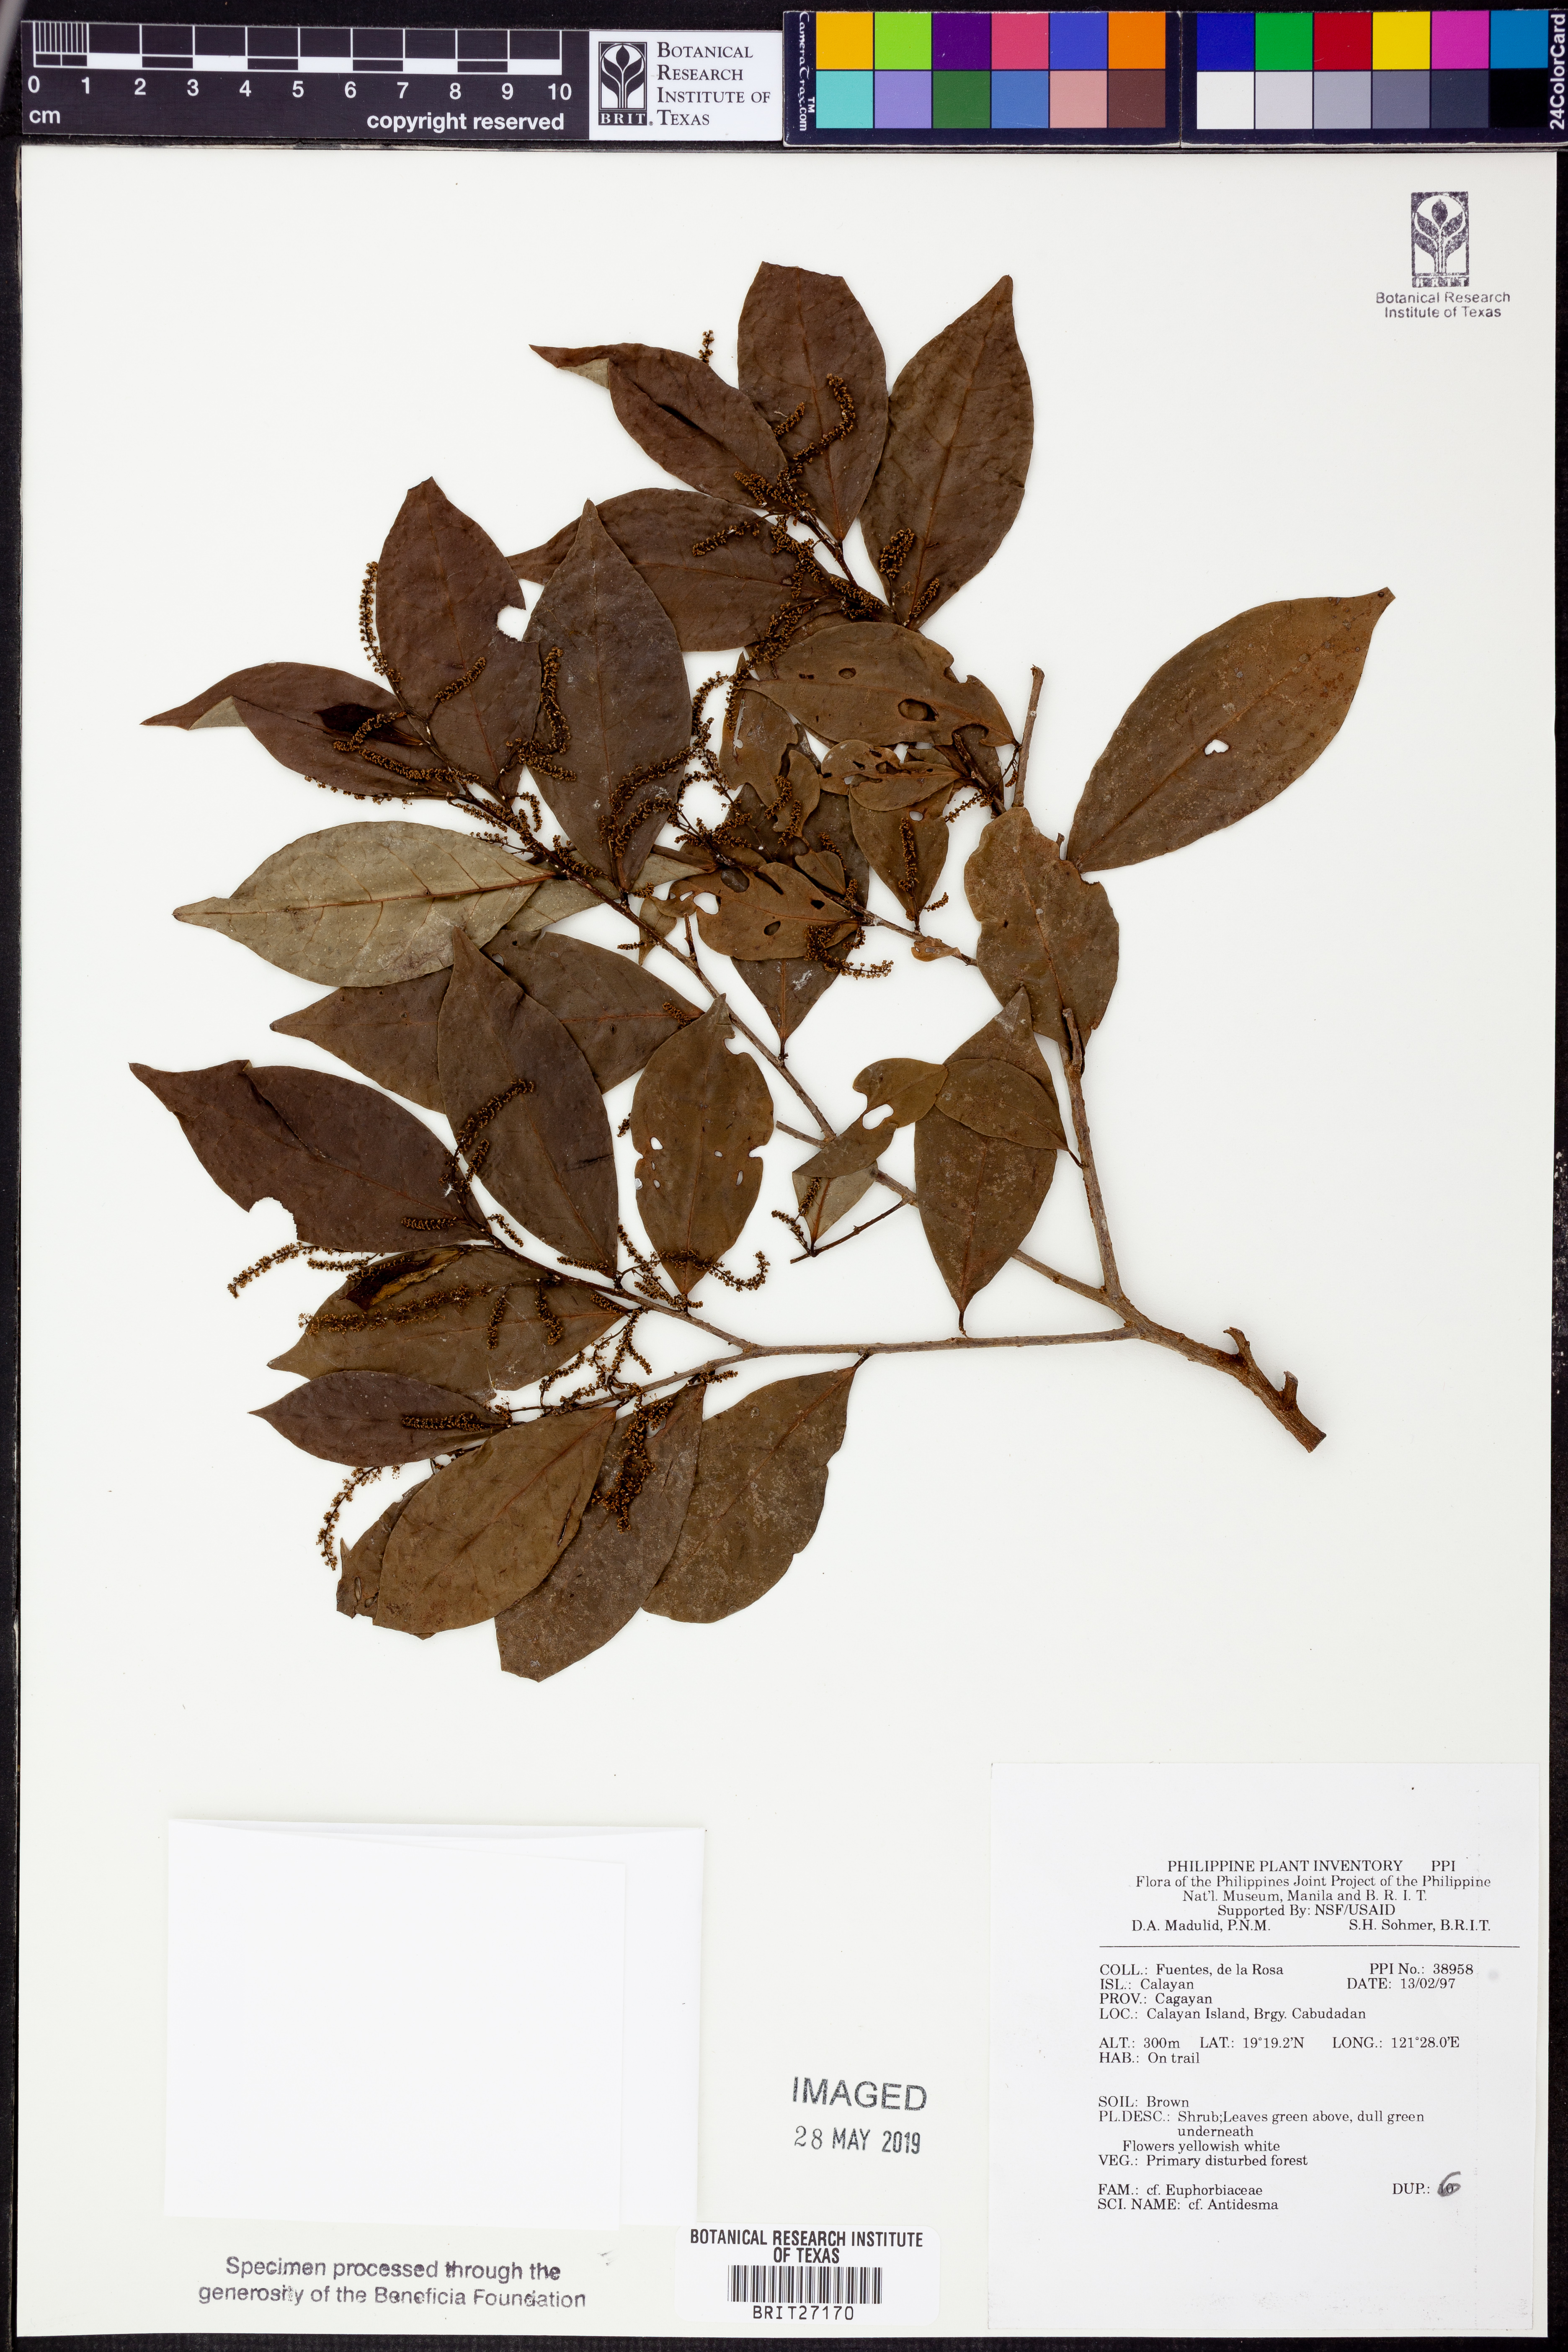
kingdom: Plantae
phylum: Tracheophyta
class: Magnoliopsida
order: Malpighiales
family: Phyllanthaceae
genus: Antidesma
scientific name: Antidesma
